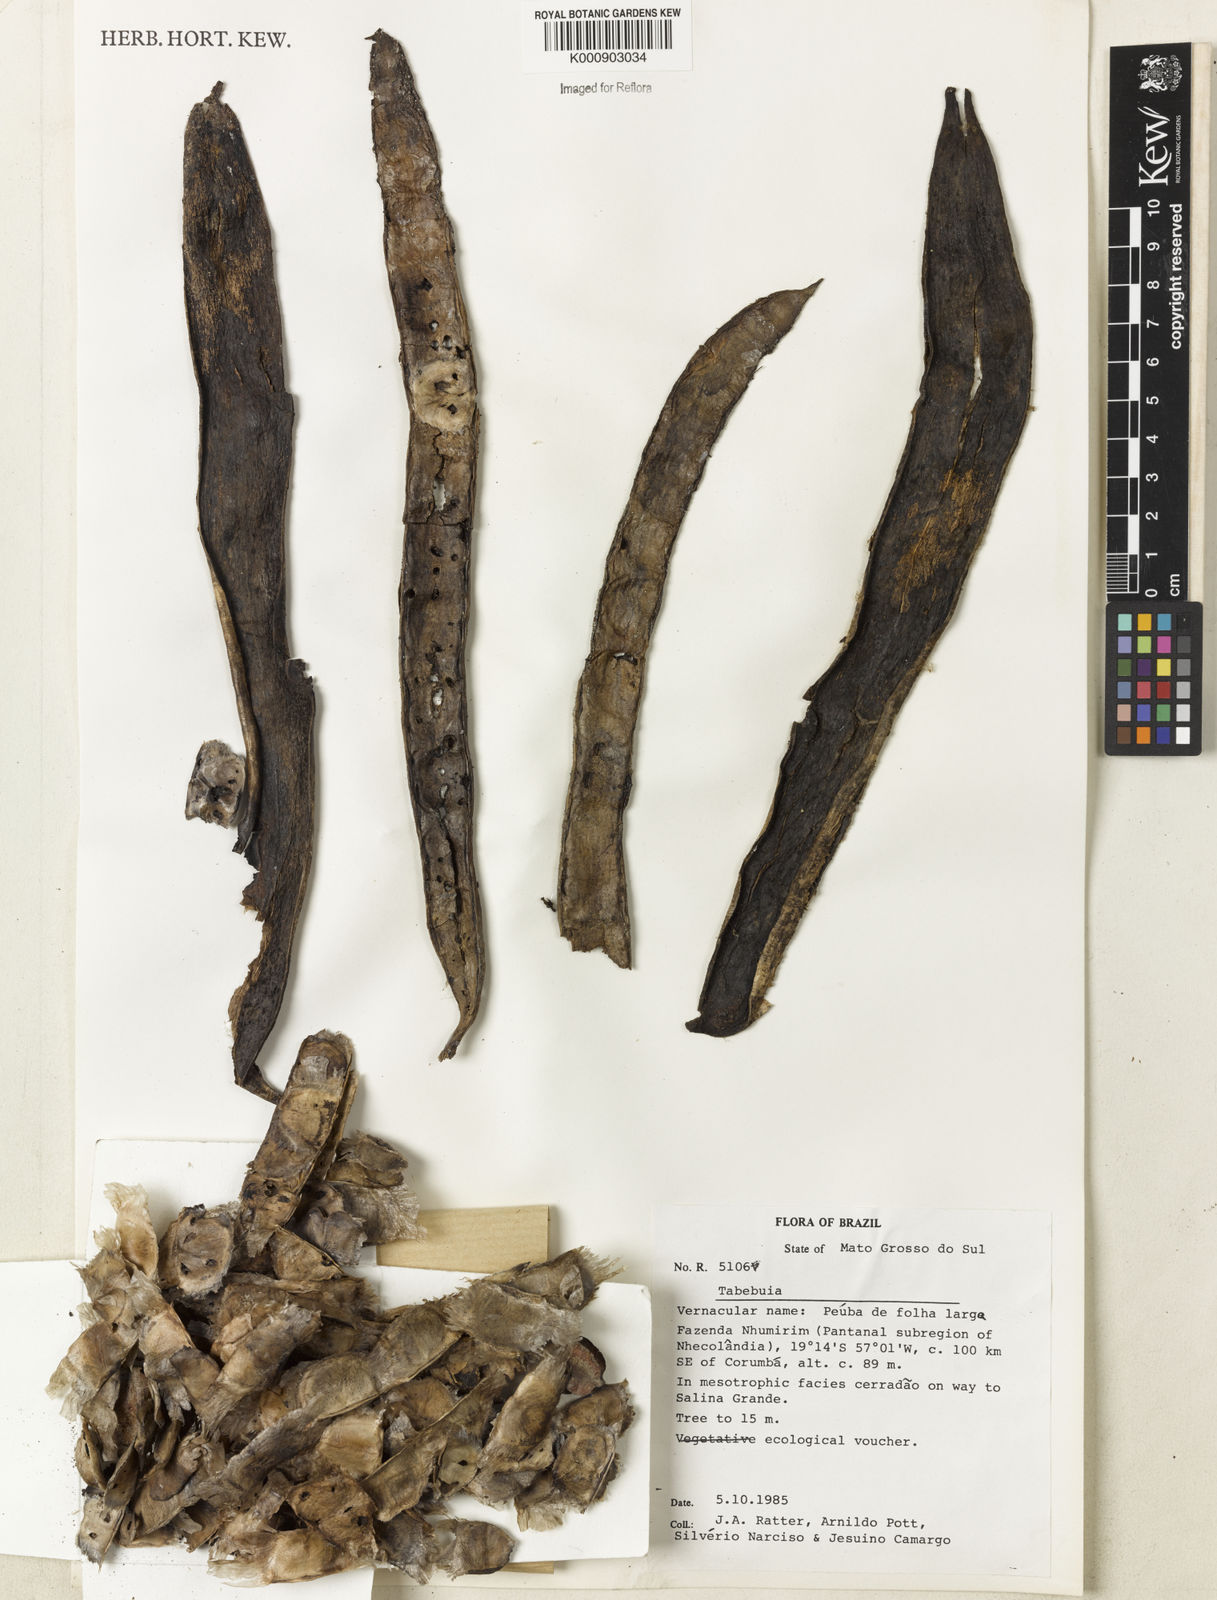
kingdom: Plantae
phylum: Tracheophyta
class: Magnoliopsida
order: Lamiales
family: Bignoniaceae
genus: Tabebuia
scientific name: Tabebuia
